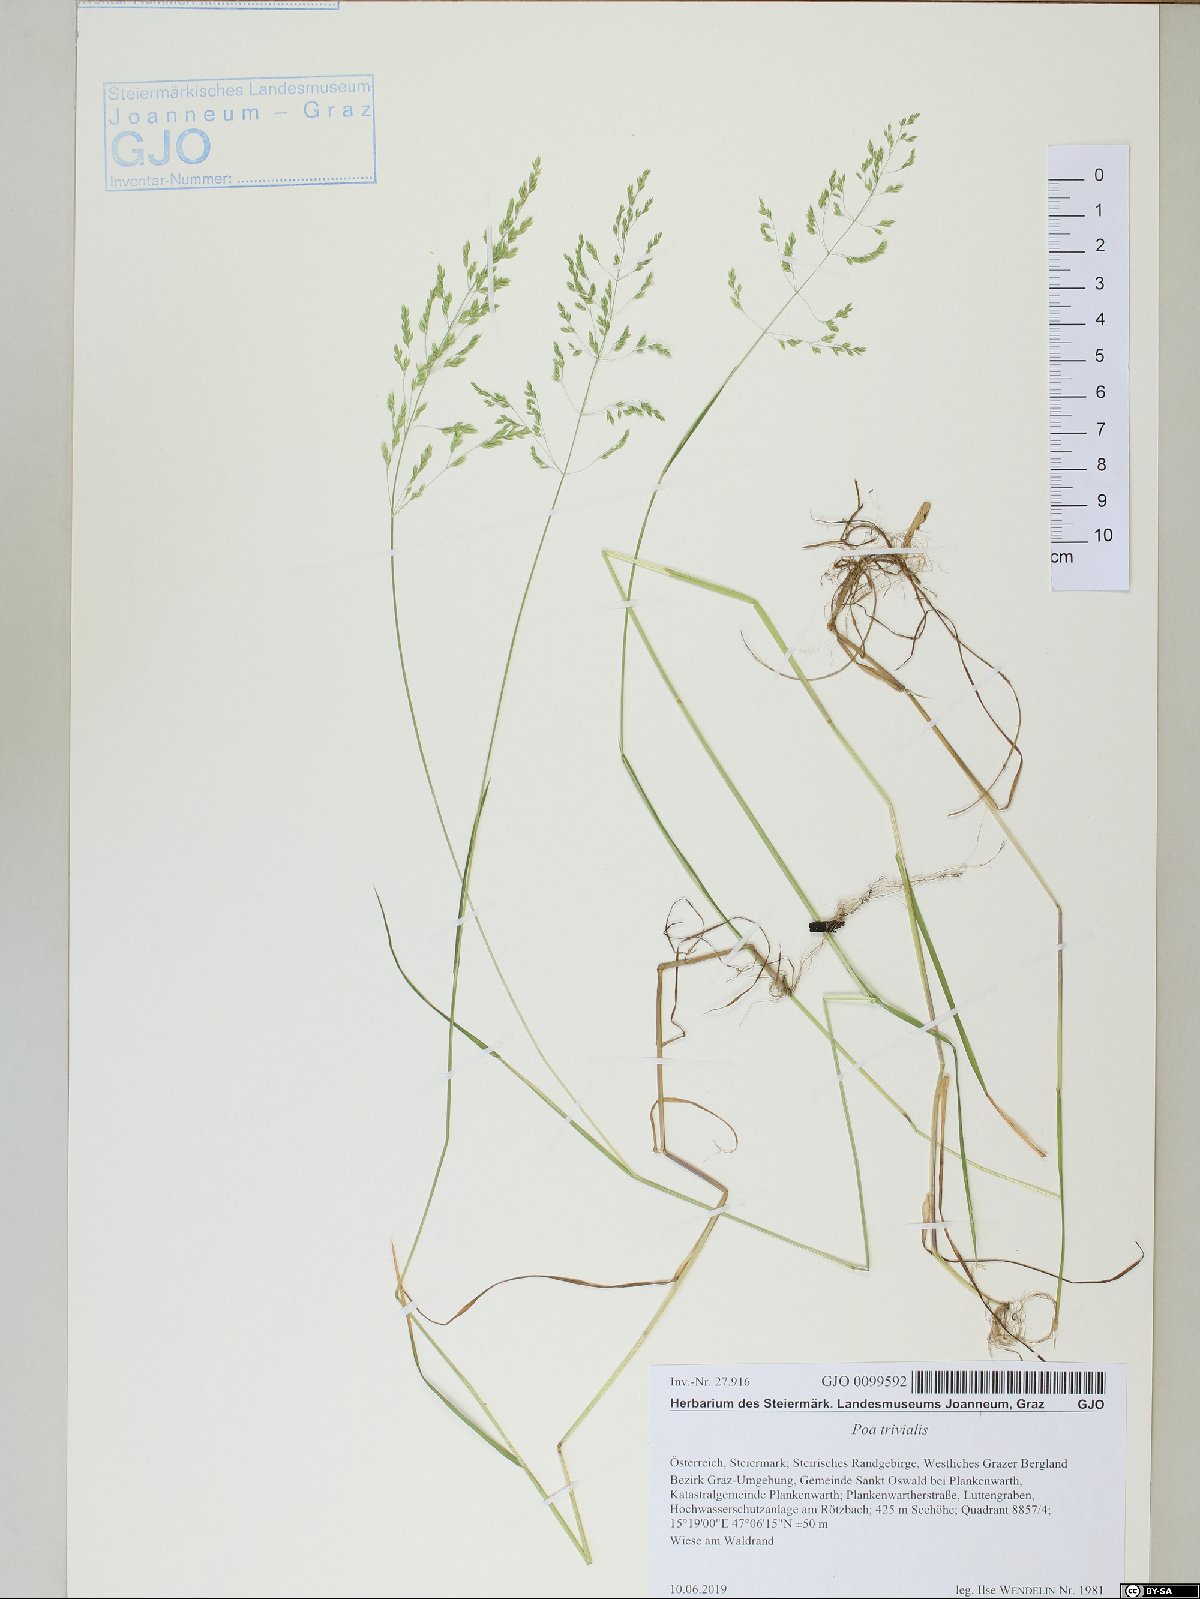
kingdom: Plantae
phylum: Tracheophyta
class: Liliopsida
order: Poales
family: Poaceae
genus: Poa
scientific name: Poa trivialis
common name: Rough bluegrass
